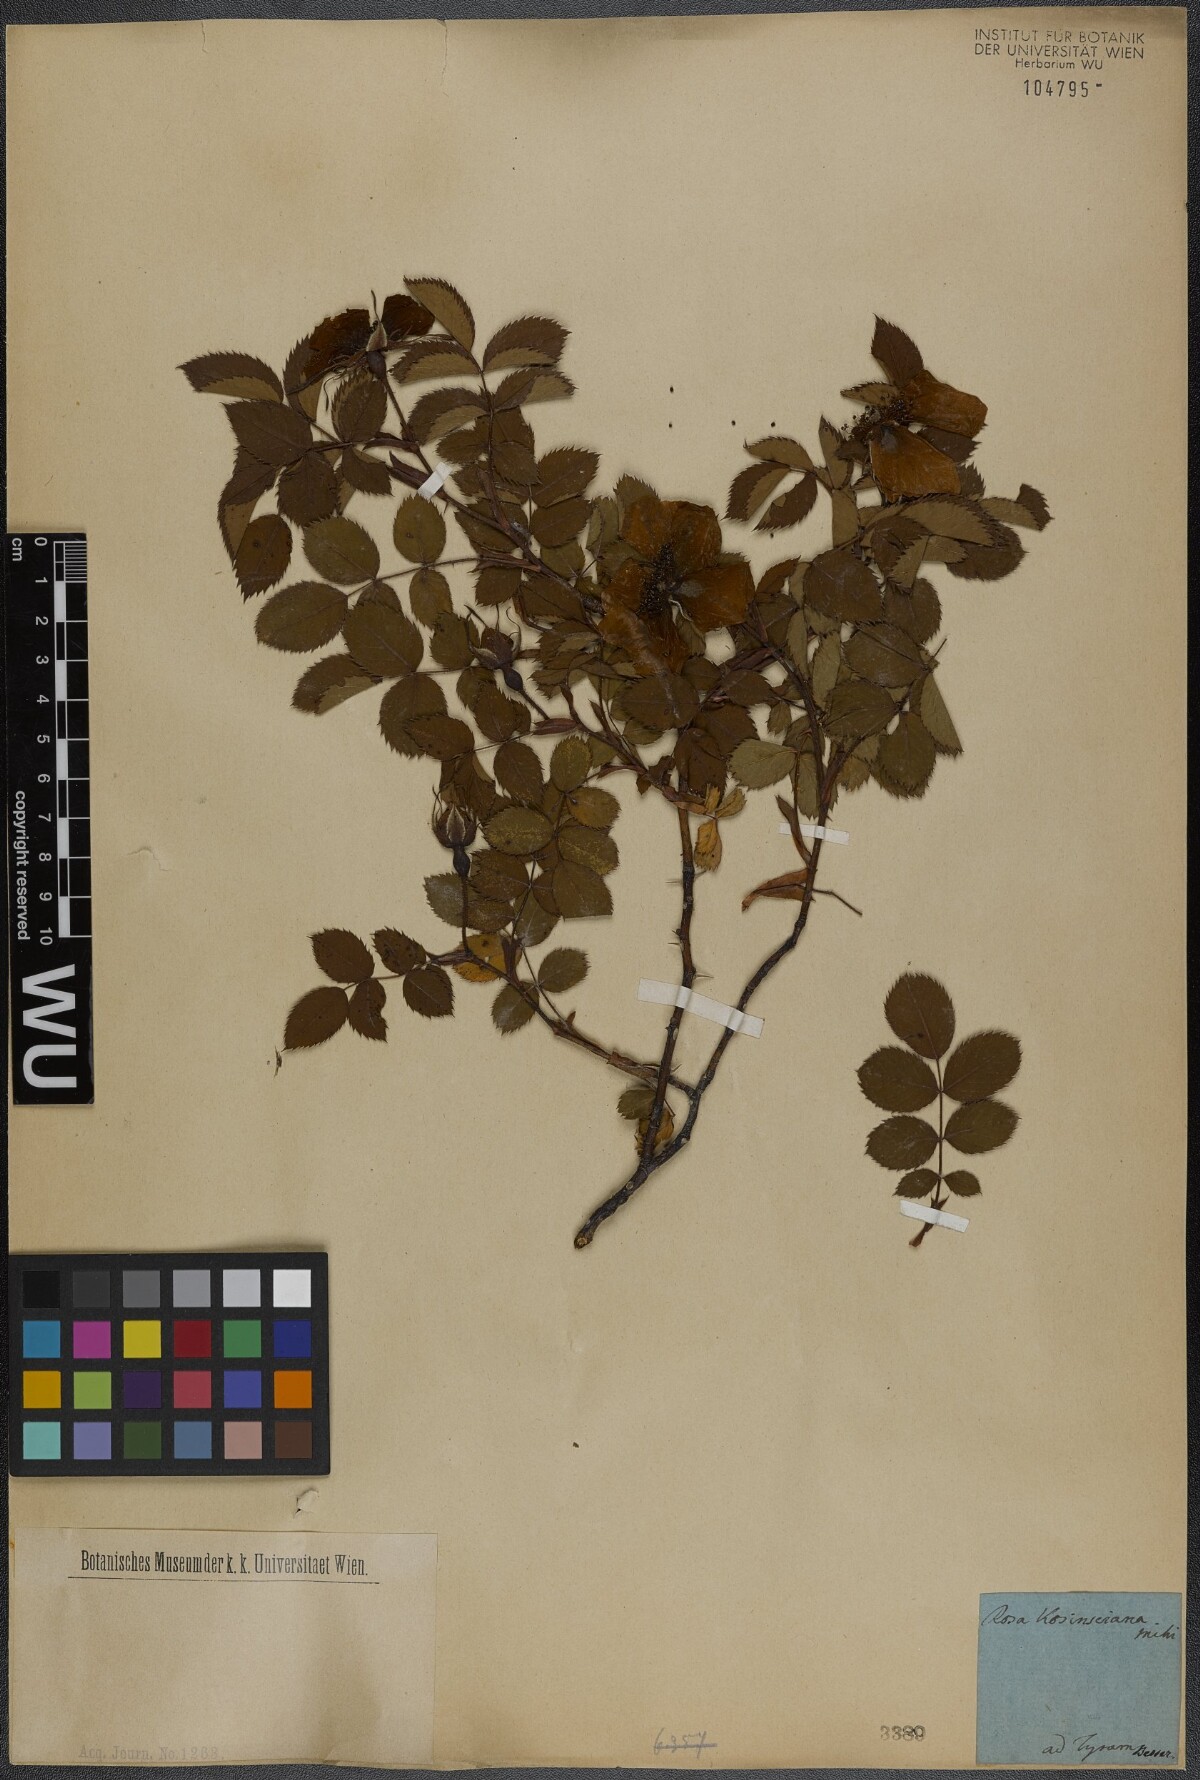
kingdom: Plantae
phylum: Tracheophyta
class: Magnoliopsida
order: Rosales
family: Rosaceae
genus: Rosa
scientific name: Rosa kosinsciana
